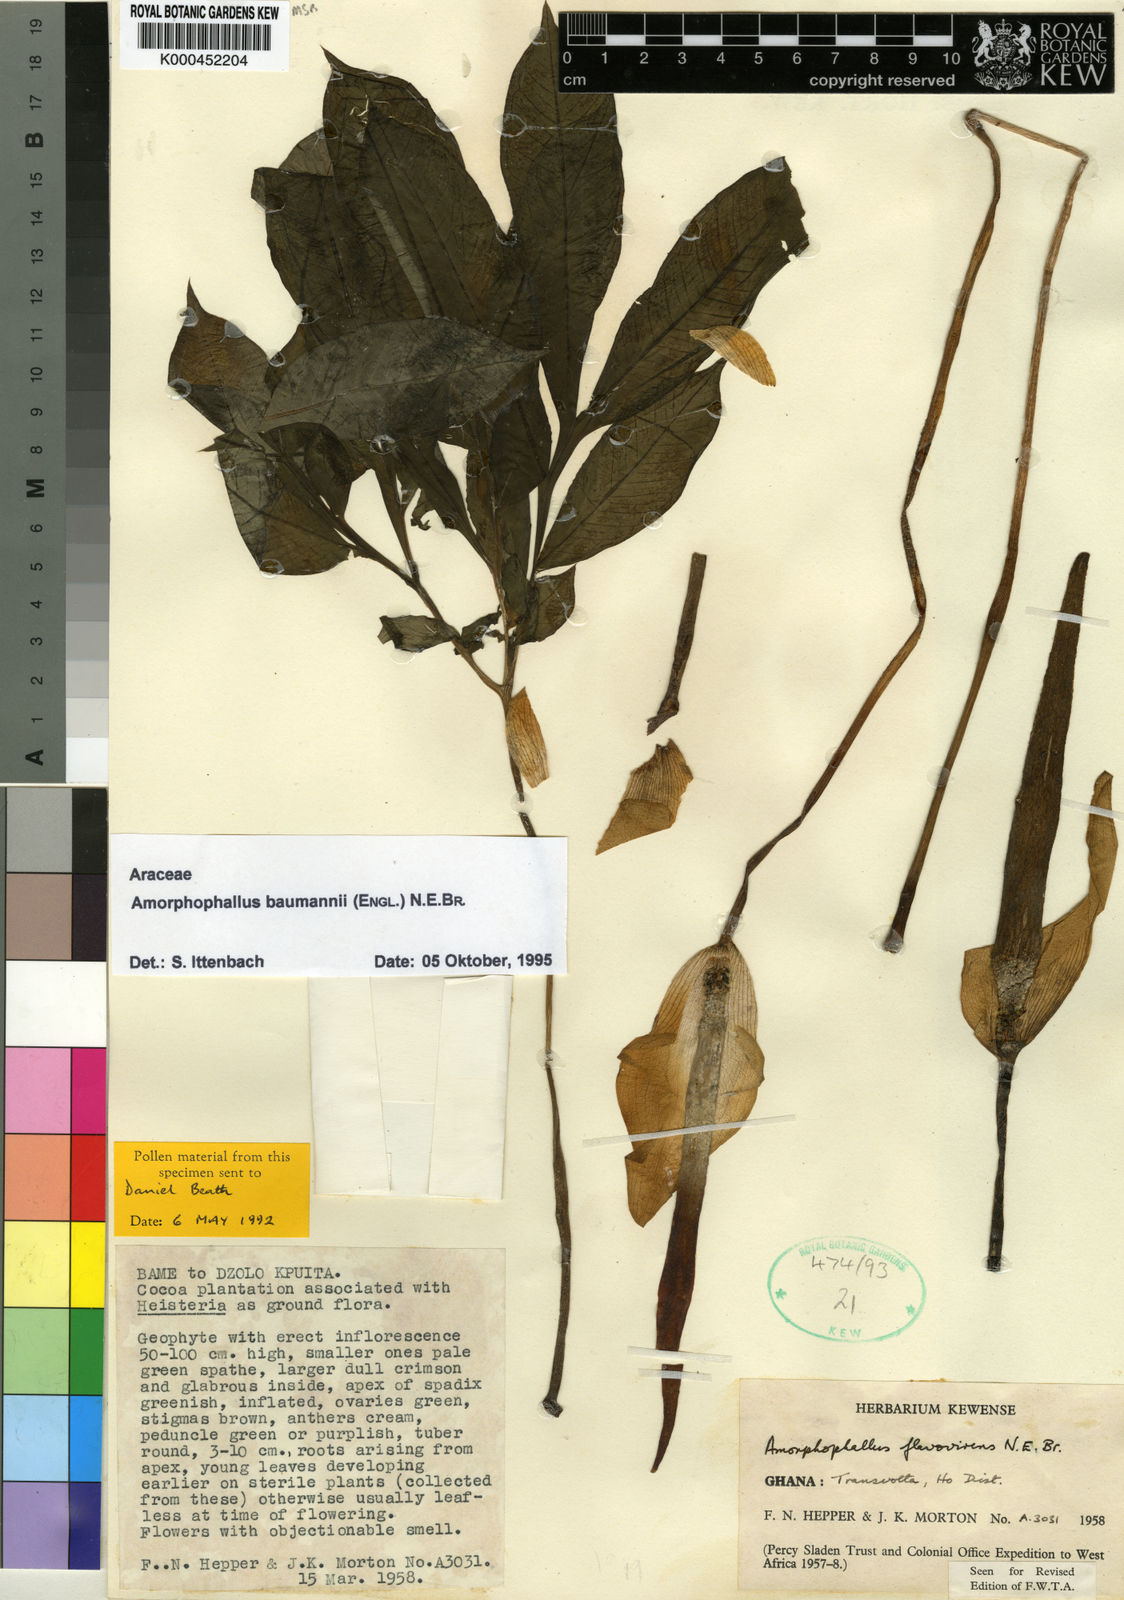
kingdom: Plantae
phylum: Tracheophyta
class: Liliopsida
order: Alismatales
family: Araceae
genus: Amorphophallus
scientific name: Amorphophallus baumannii
